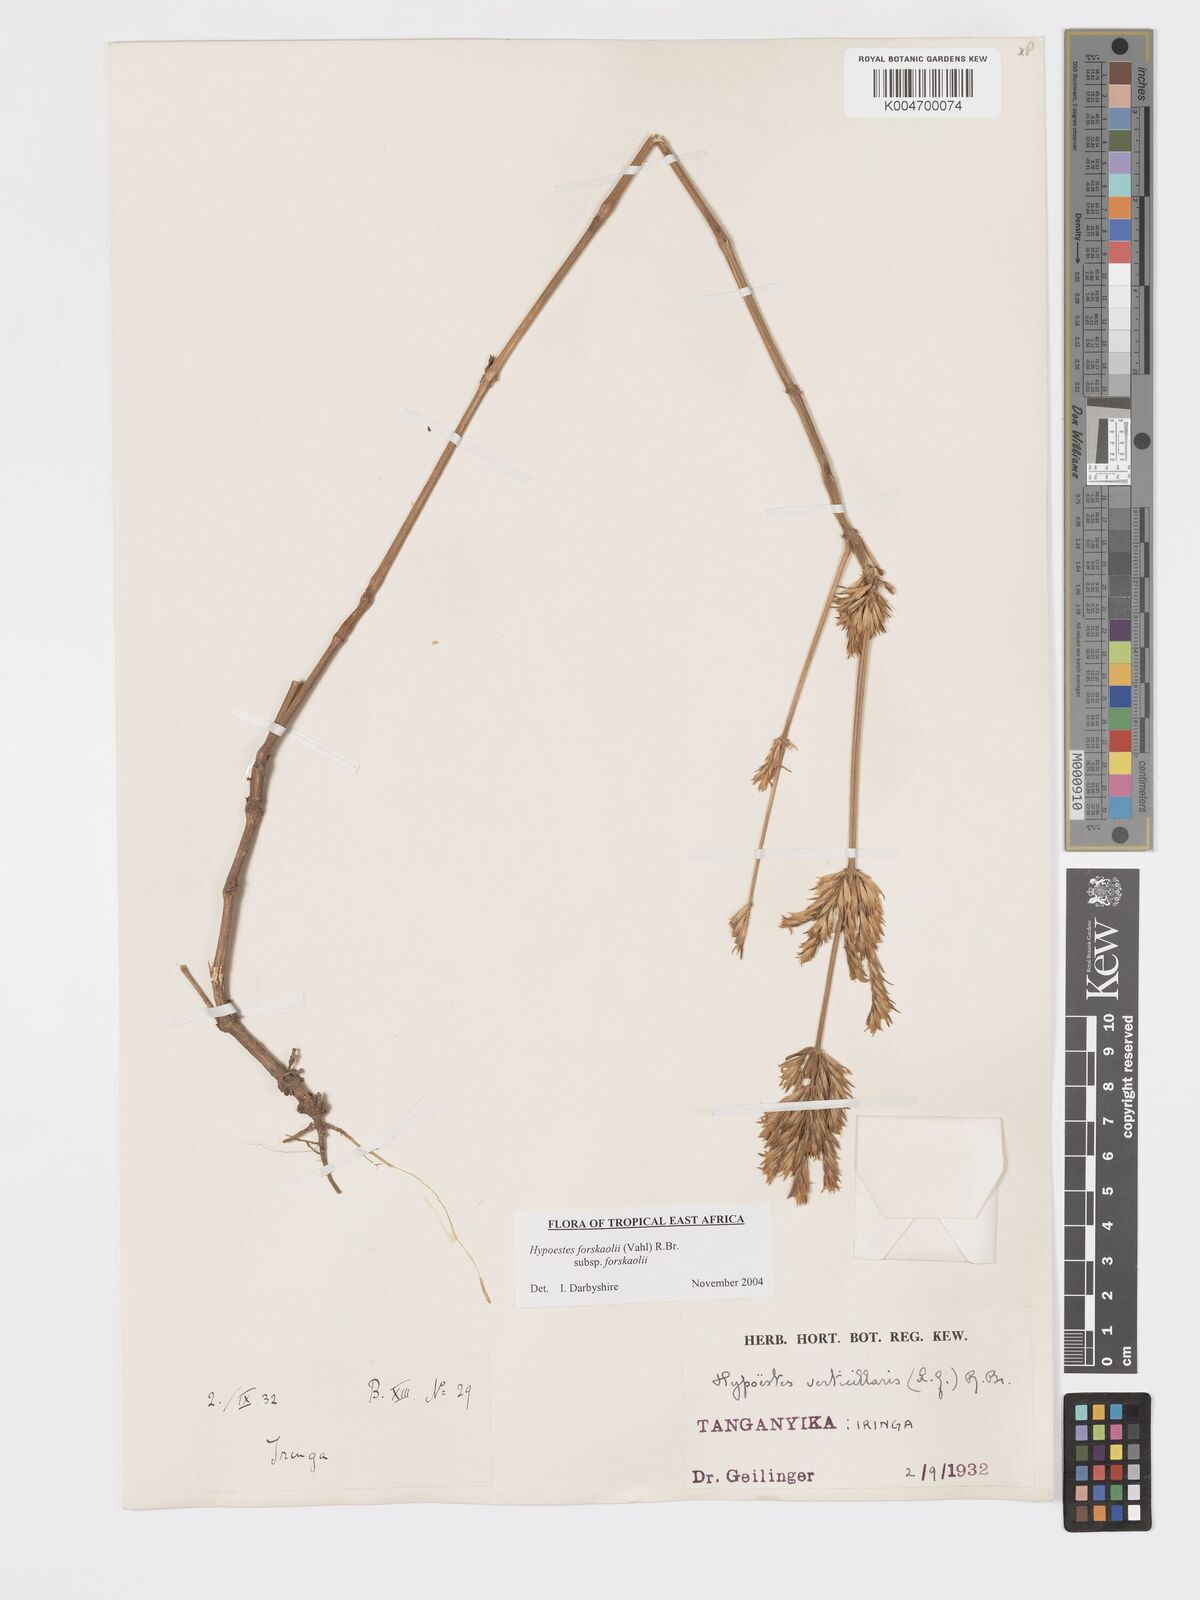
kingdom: Plantae
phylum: Tracheophyta
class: Magnoliopsida
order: Lamiales
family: Acanthaceae
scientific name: Acanthaceae
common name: Acanthaceae
